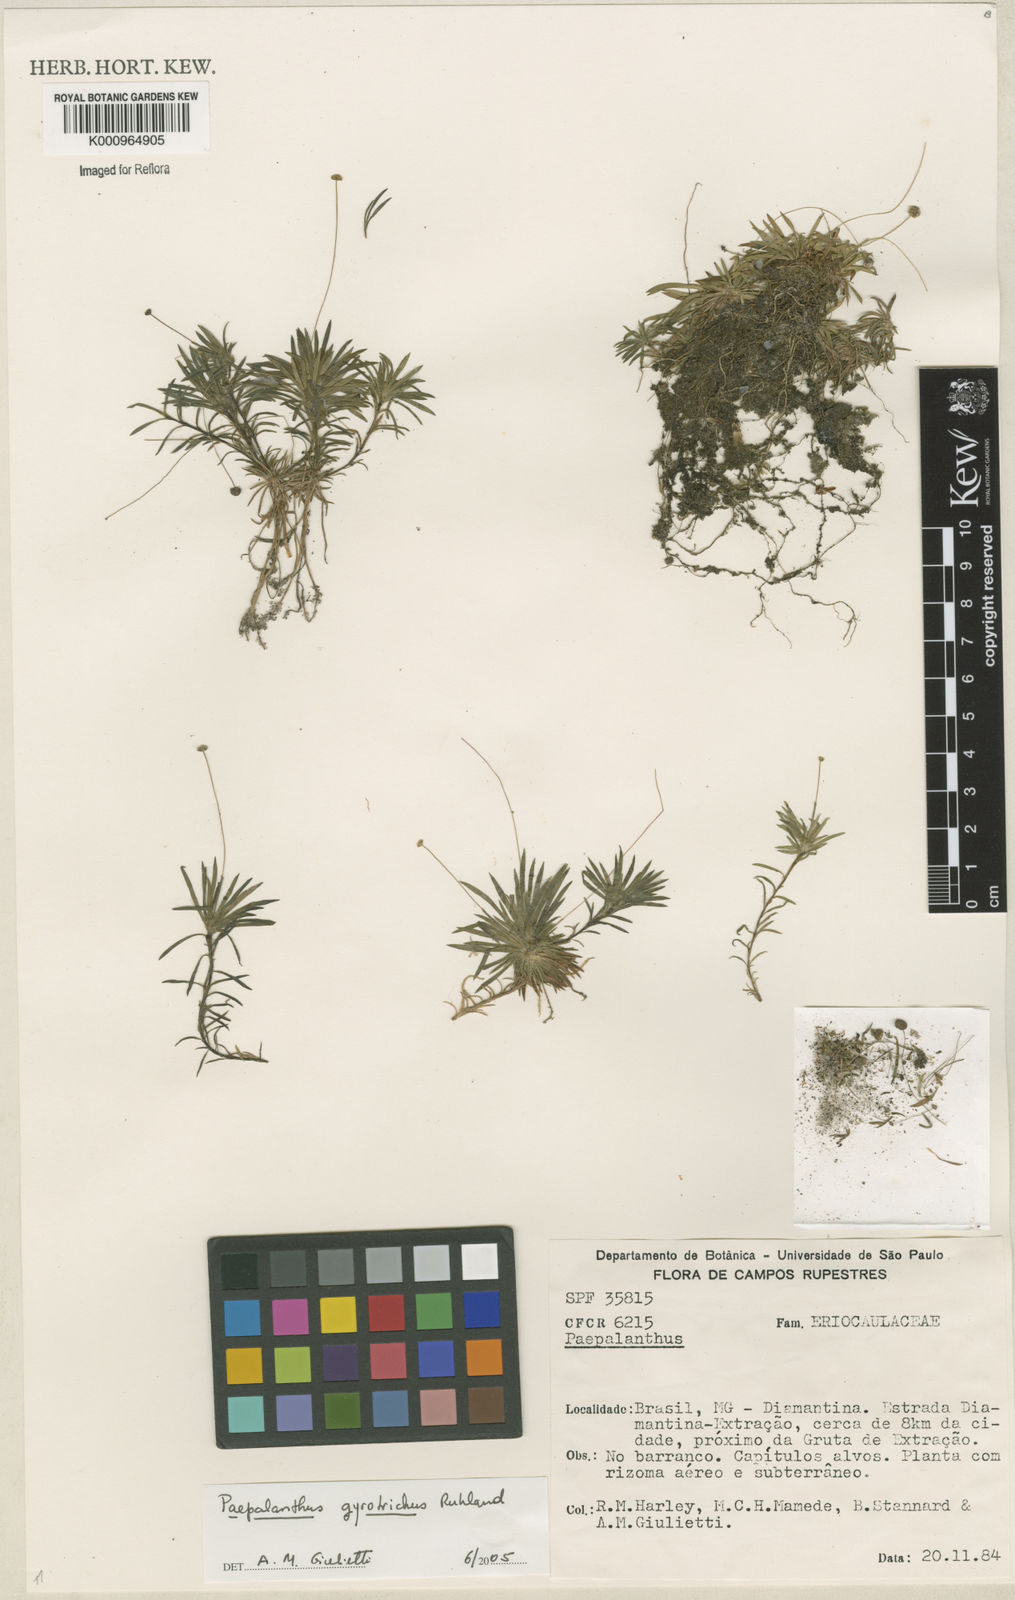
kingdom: Plantae
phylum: Tracheophyta
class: Liliopsida
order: Poales
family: Eriocaulaceae
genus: Paepalanthus
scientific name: Paepalanthus gyrotrichus
